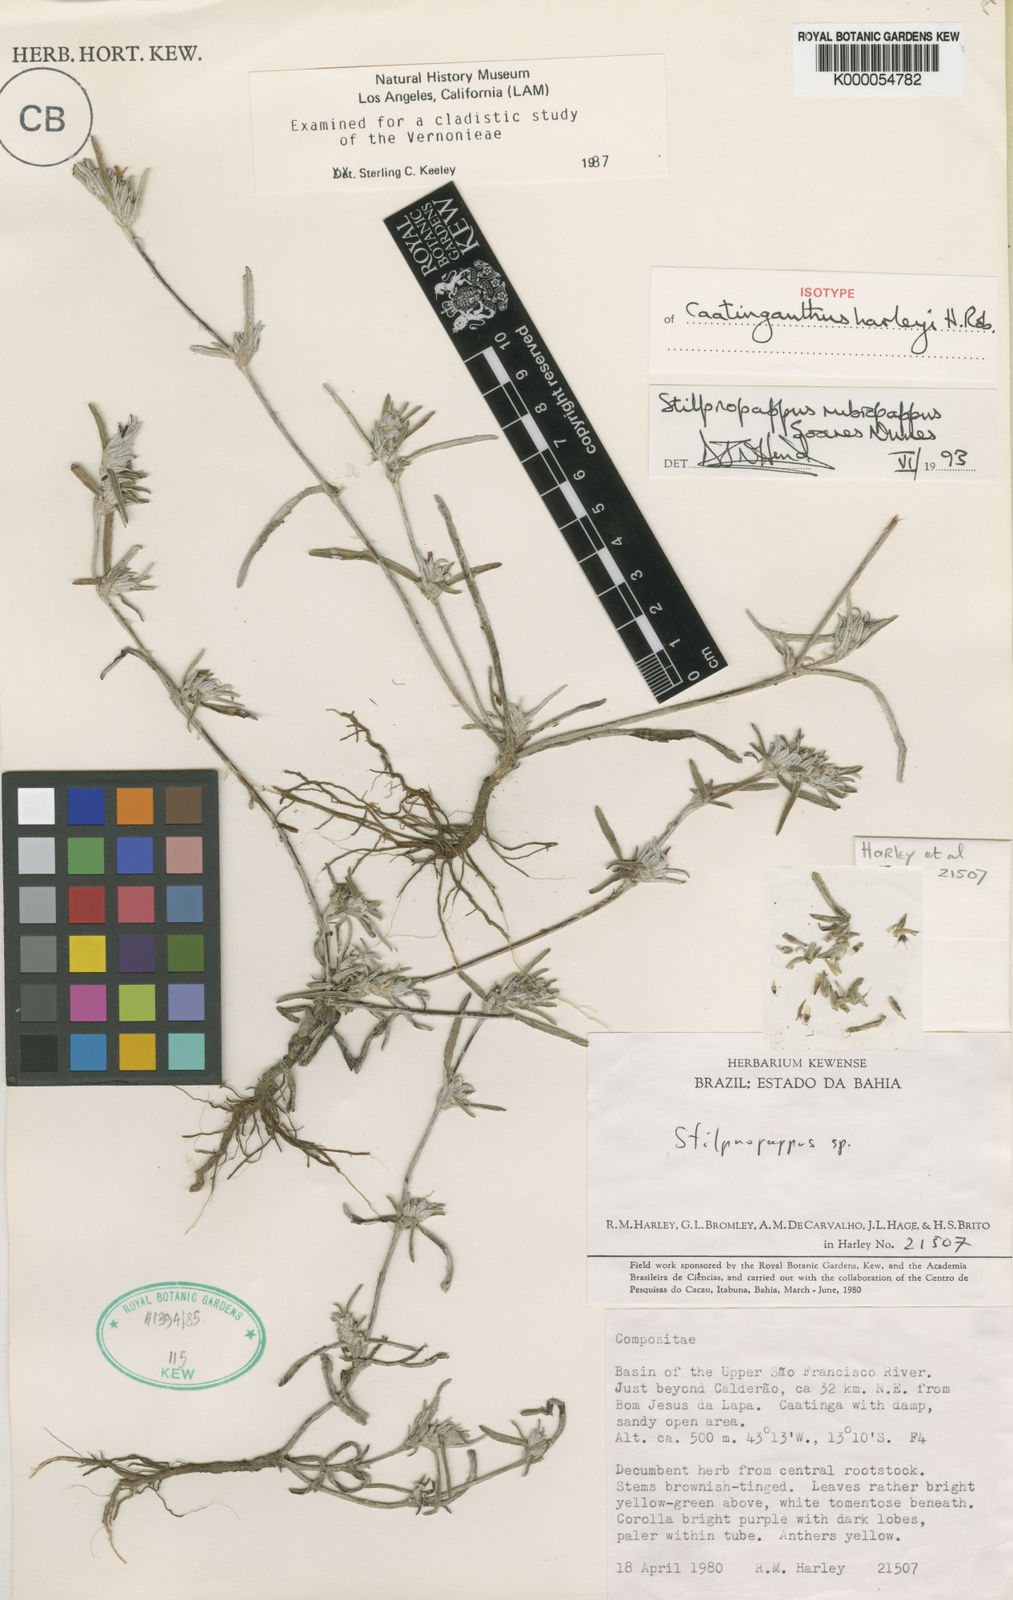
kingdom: Plantae
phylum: Tracheophyta
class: Magnoliopsida
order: Asterales
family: Asteraceae
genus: Caatinganthus
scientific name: Caatinganthus harleyi
